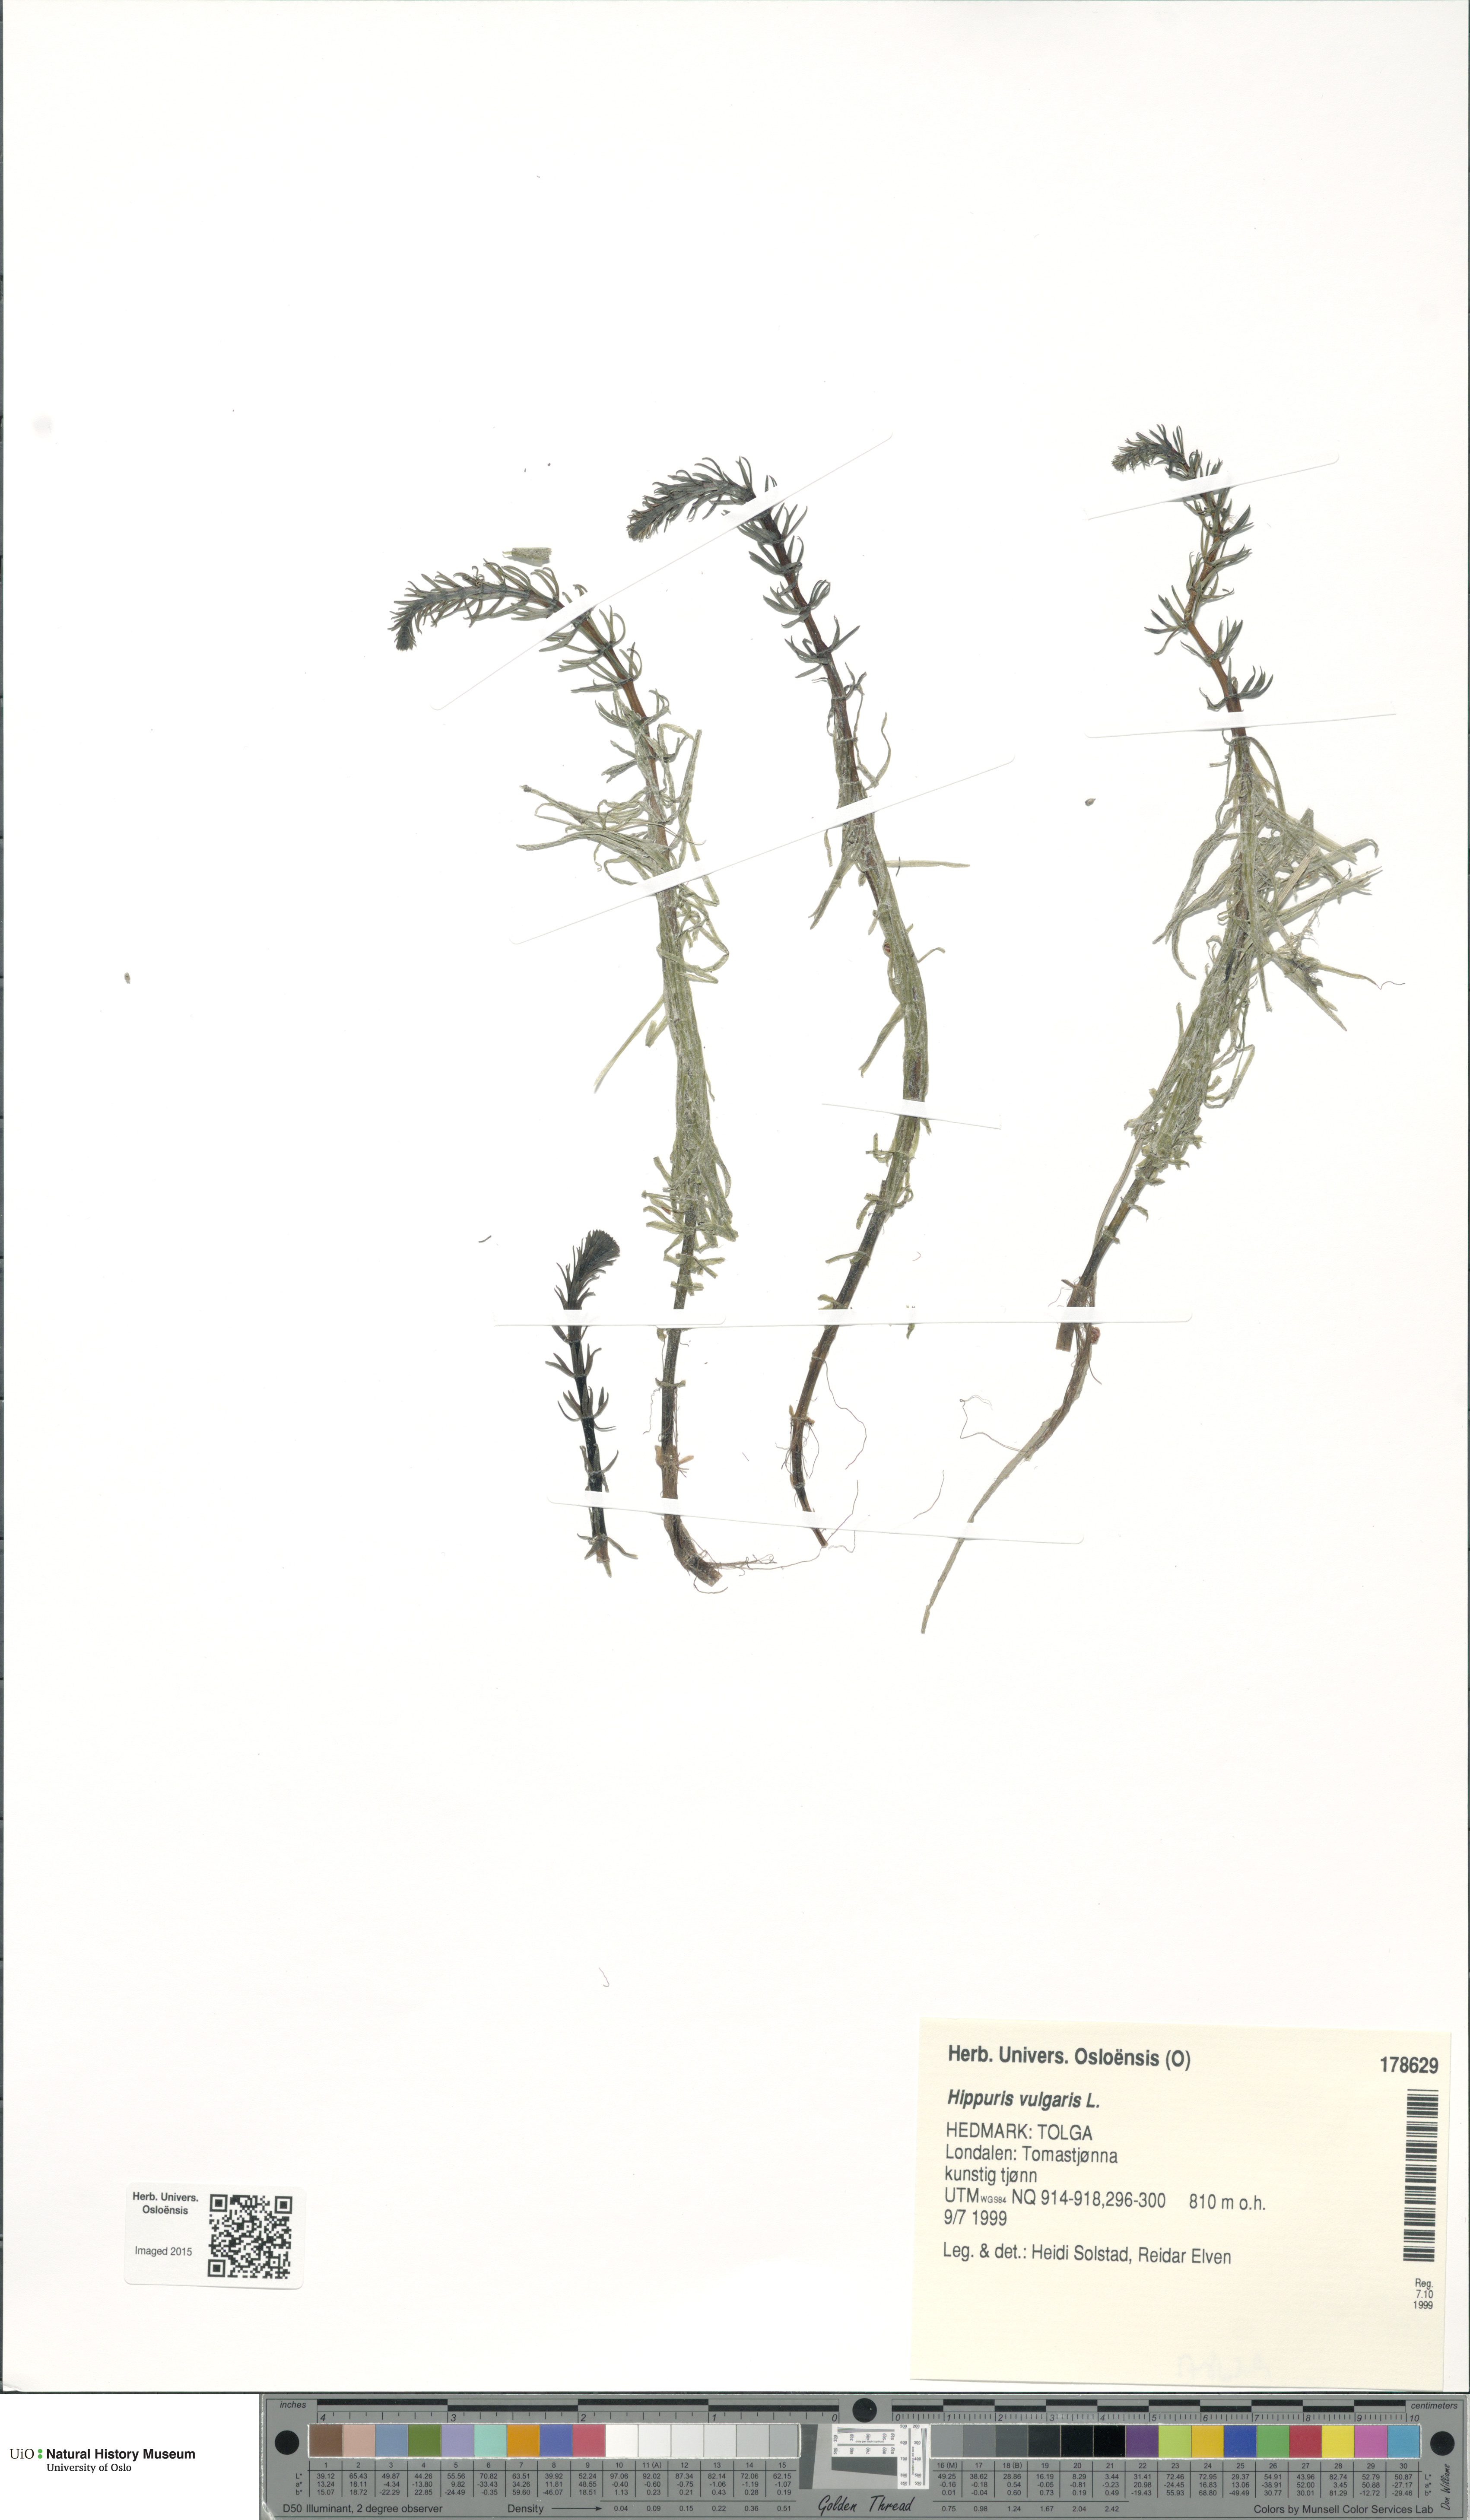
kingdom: Plantae
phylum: Tracheophyta
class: Magnoliopsida
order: Lamiales
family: Plantaginaceae
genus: Hippuris
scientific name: Hippuris vulgaris
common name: Mare's-tail
